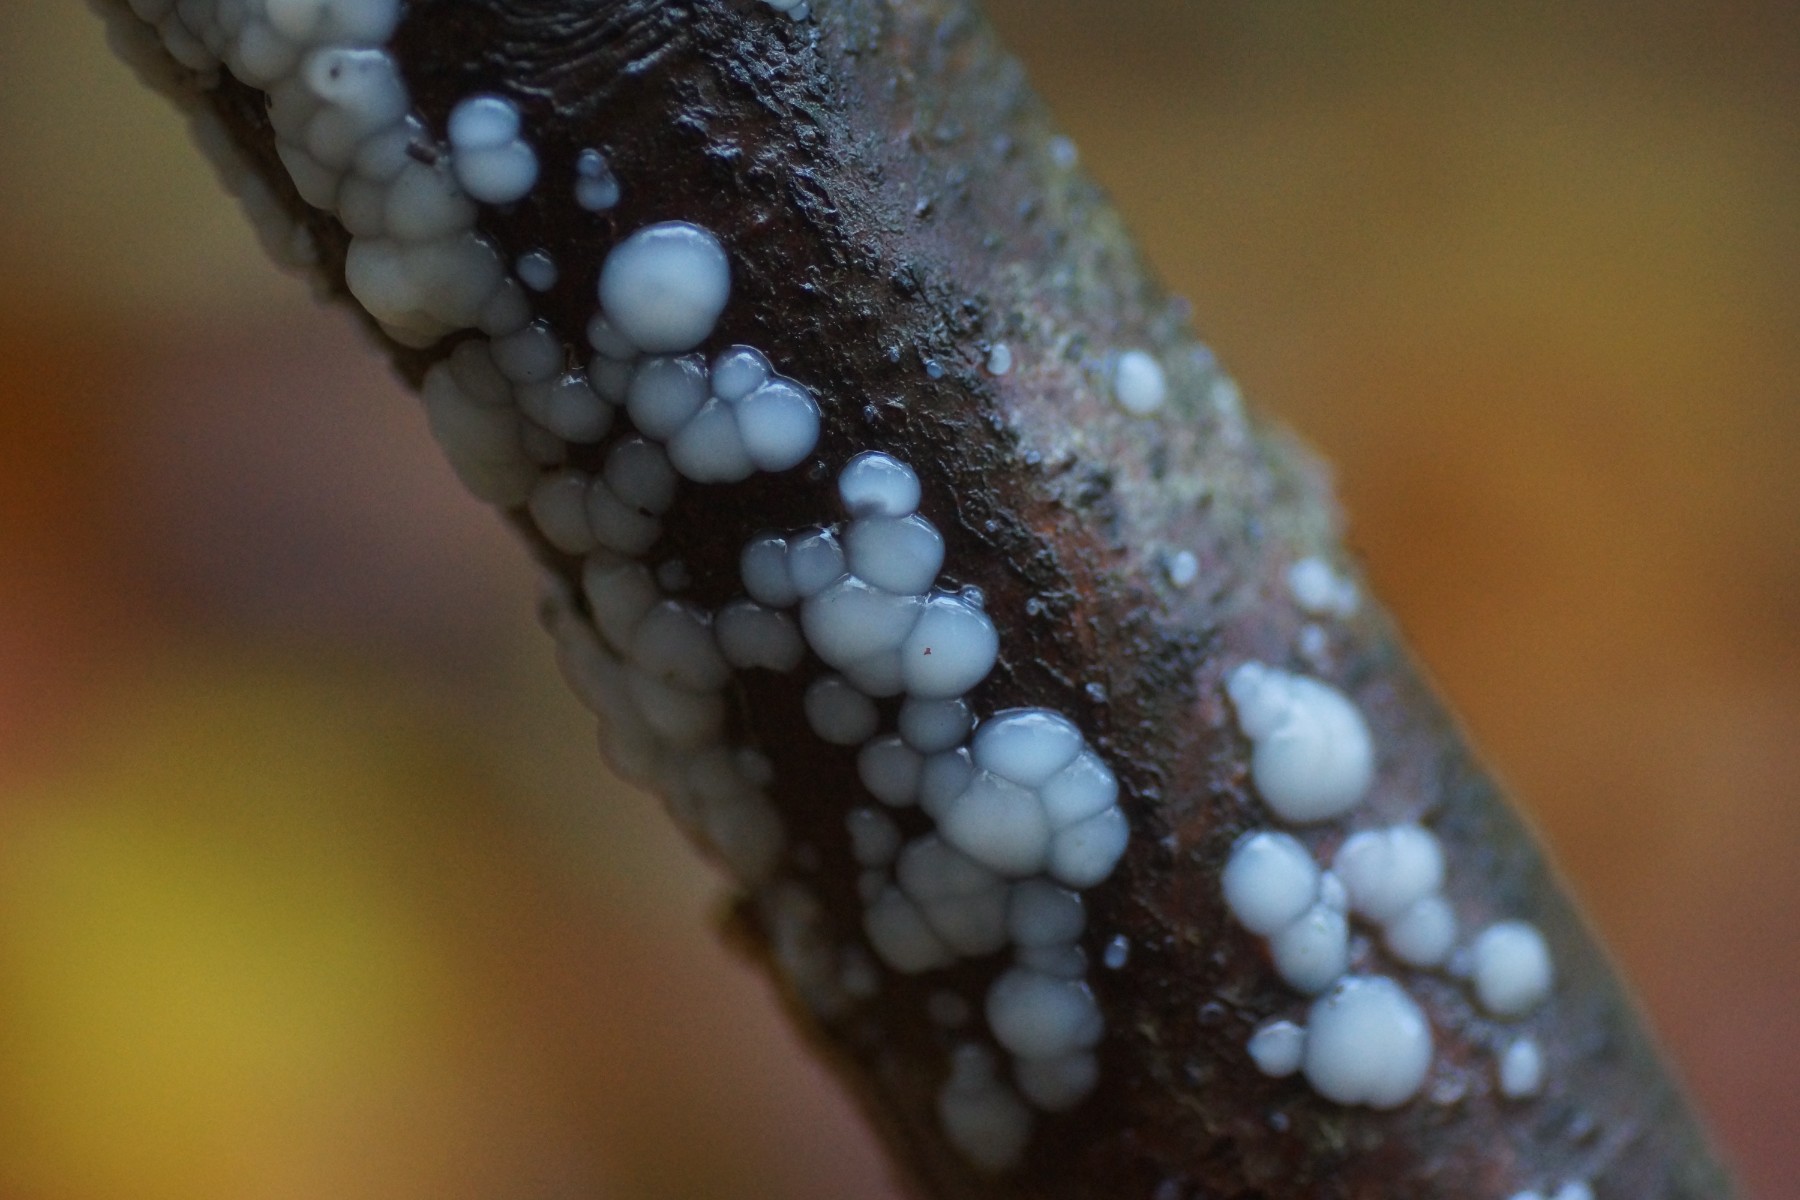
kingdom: Fungi
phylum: Basidiomycota
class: Agaricomycetes
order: Auriculariales
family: Auriculariaceae
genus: Exidia
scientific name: Exidia thuretiana
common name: hvidlig bævretop
